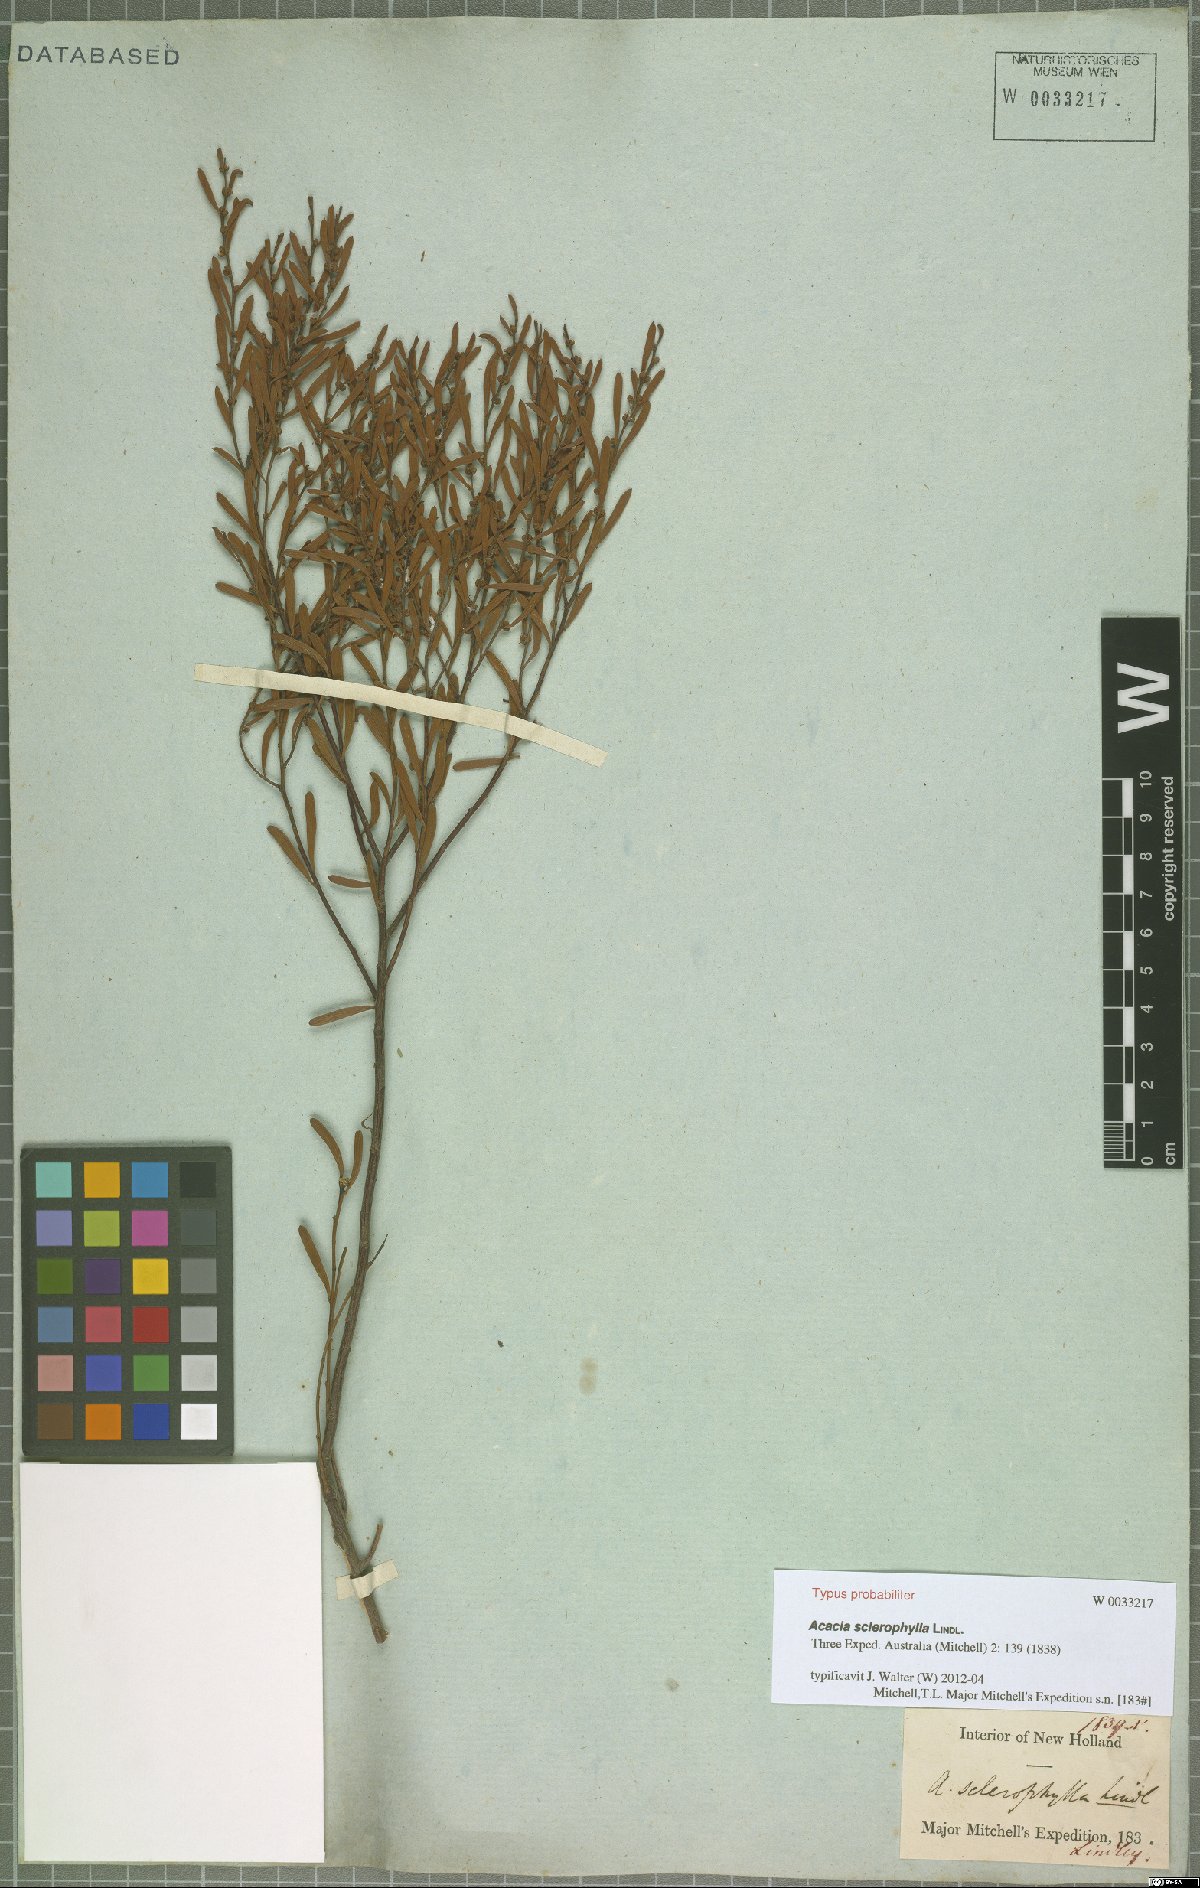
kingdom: Plantae
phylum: Tracheophyta
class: Magnoliopsida
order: Fabales
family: Fabaceae
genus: Acacia
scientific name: Acacia sclerophylla
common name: Hard-leaf wattle
